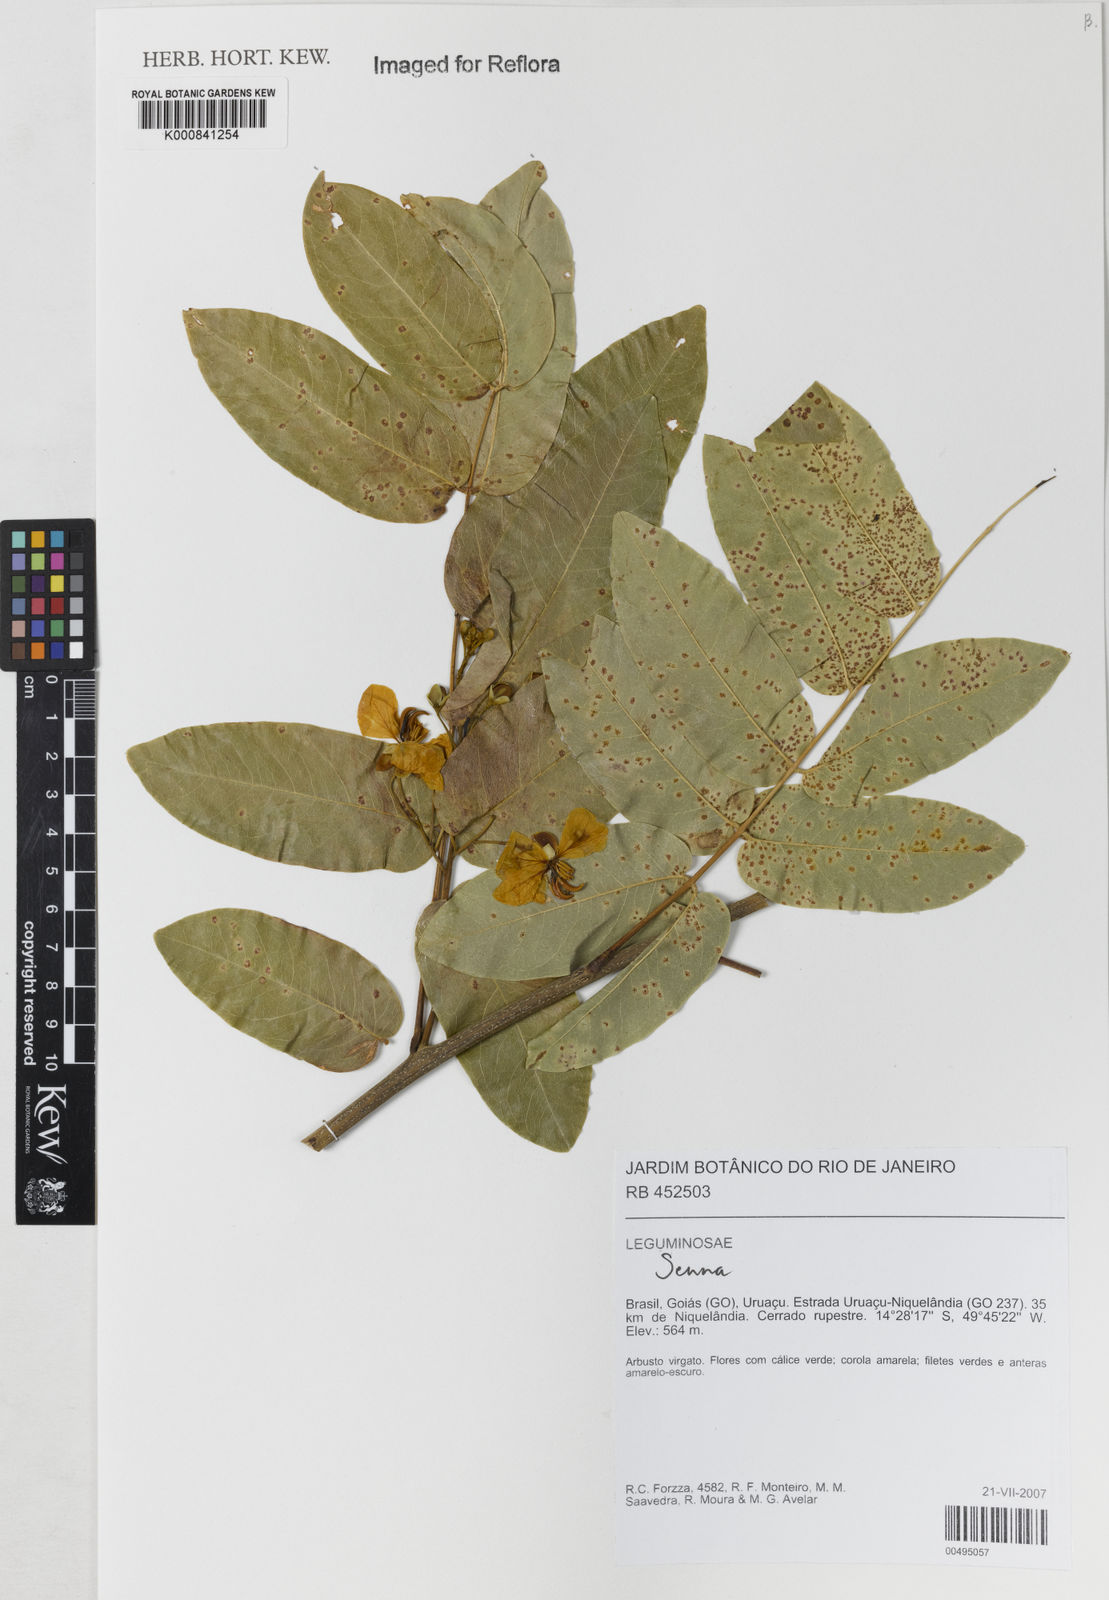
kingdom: Plantae
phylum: Tracheophyta
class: Magnoliopsida
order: Fabales
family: Fabaceae
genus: Senna
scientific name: Senna
